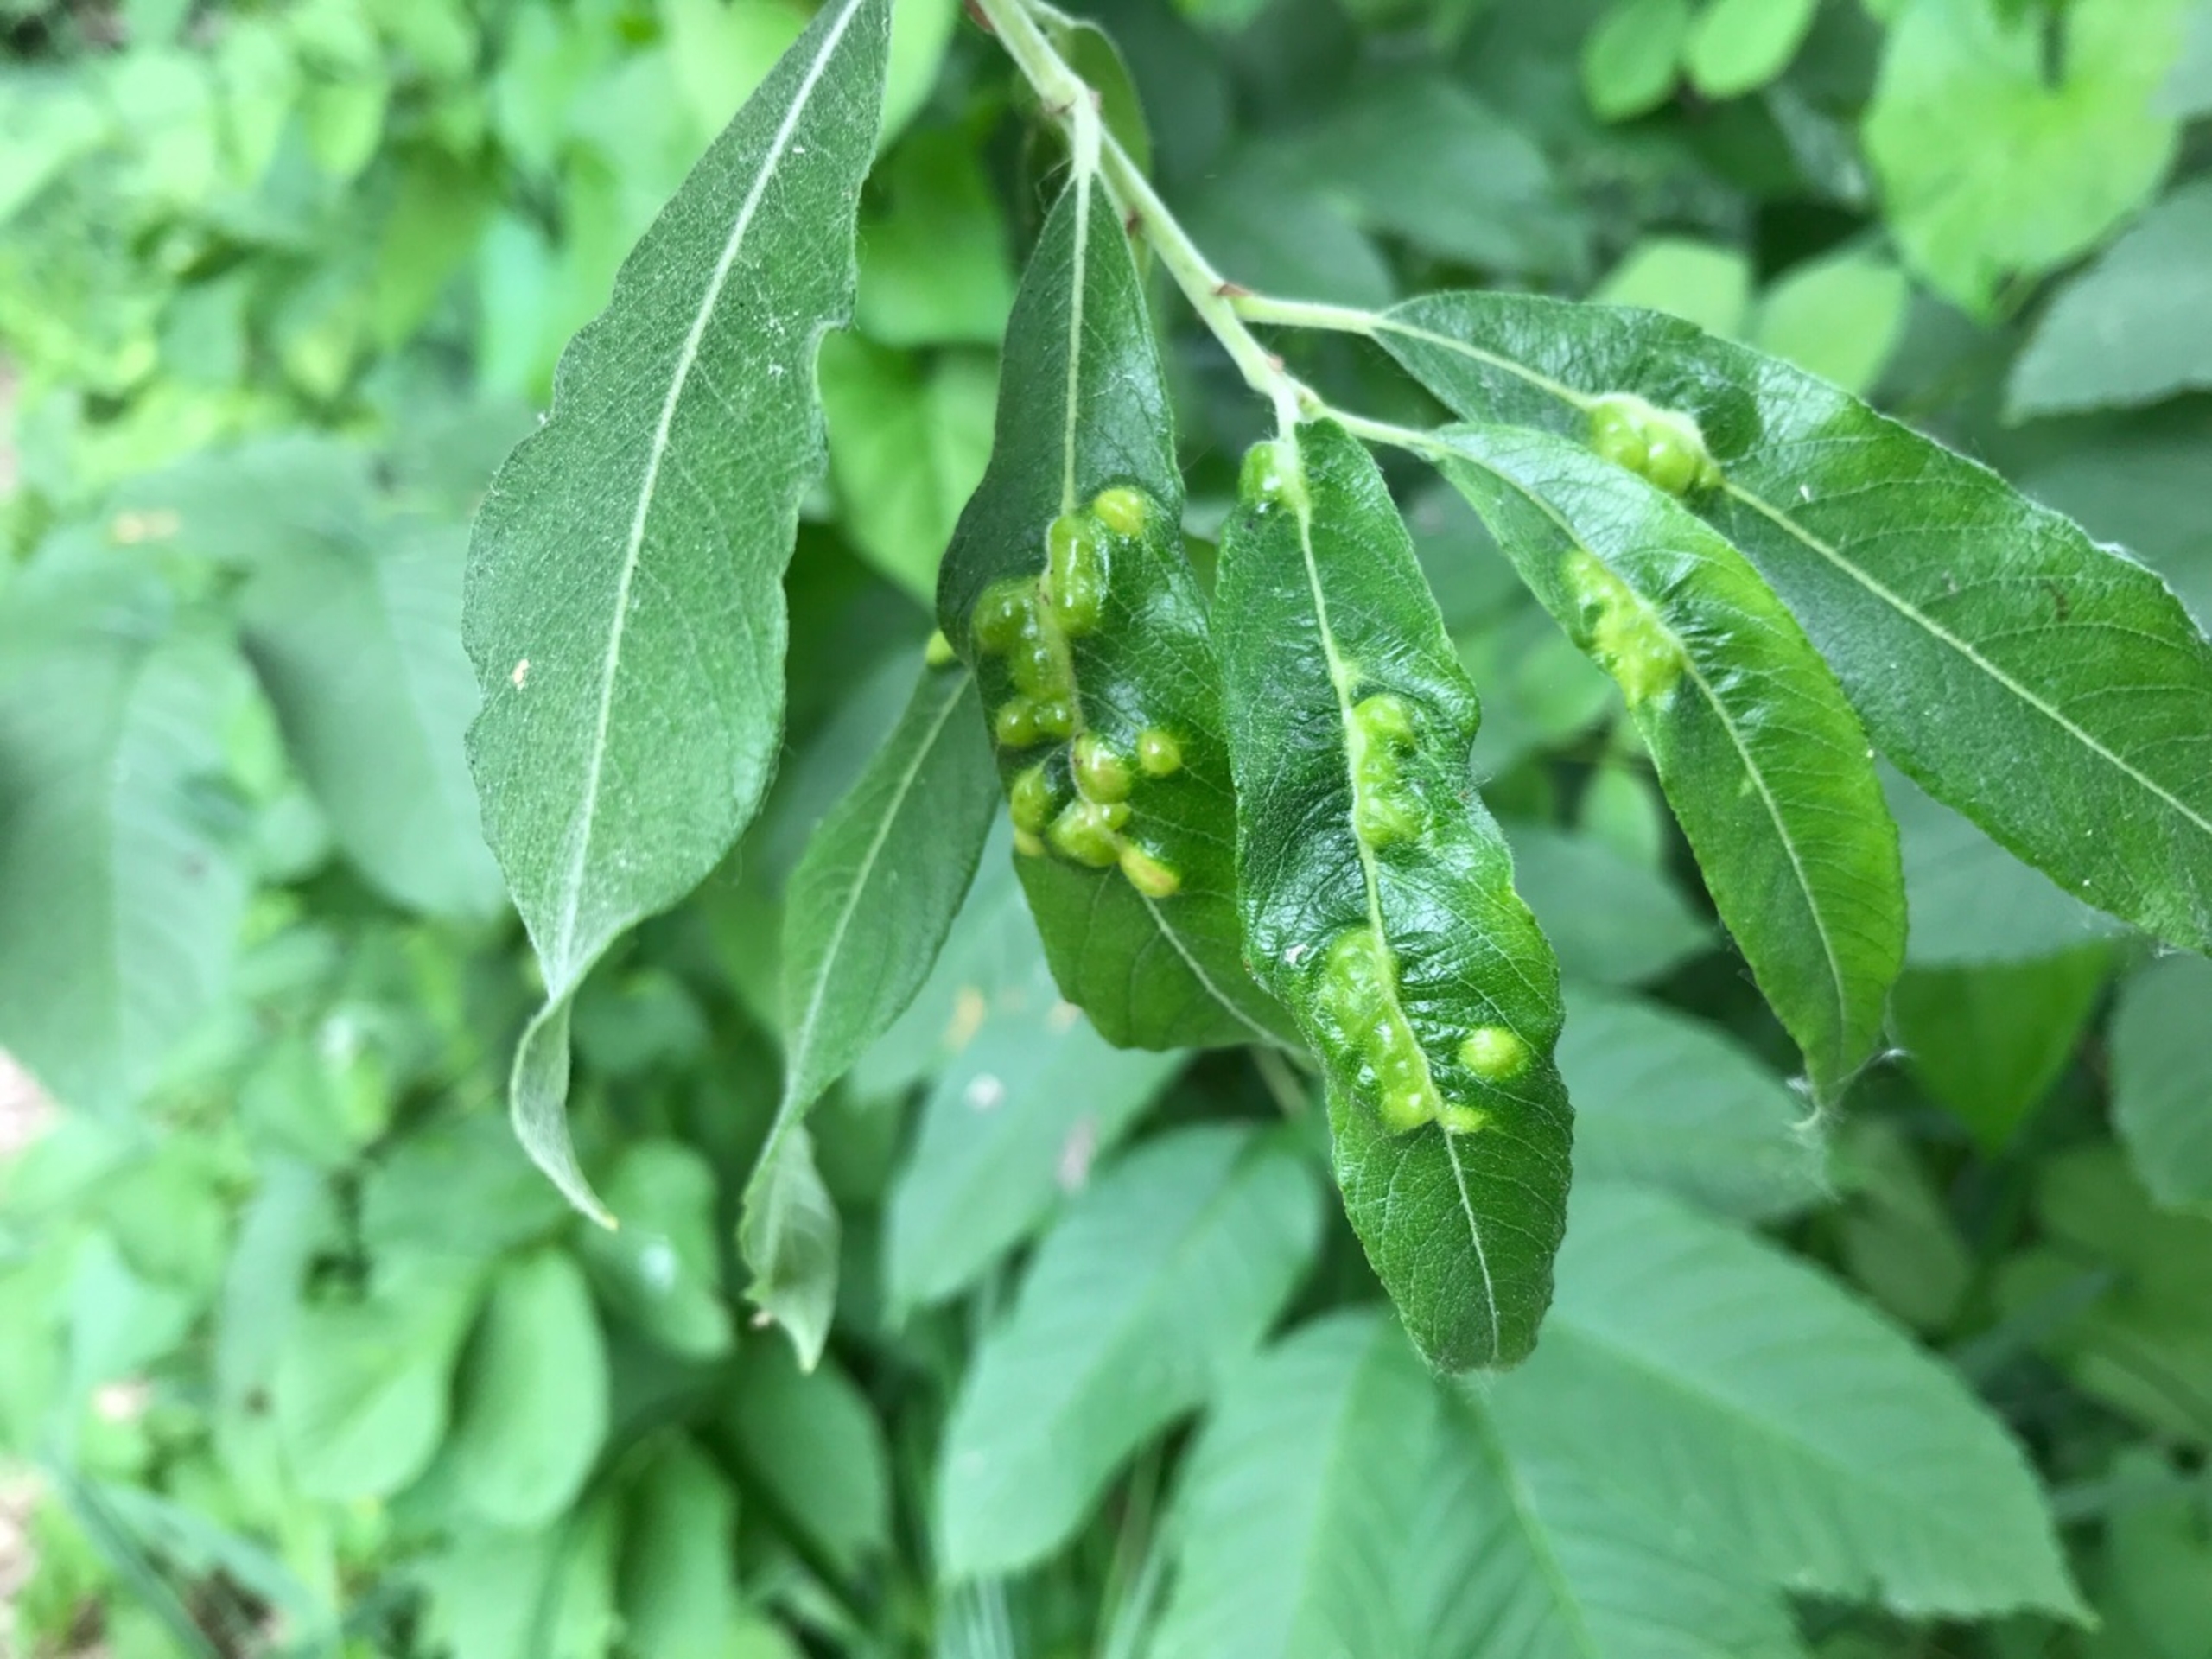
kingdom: Animalia
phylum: Arthropoda
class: Insecta
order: Diptera
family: Cecidomyiidae
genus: Iteomyia
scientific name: Iteomyia major
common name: Stor seljebladgalmyg
